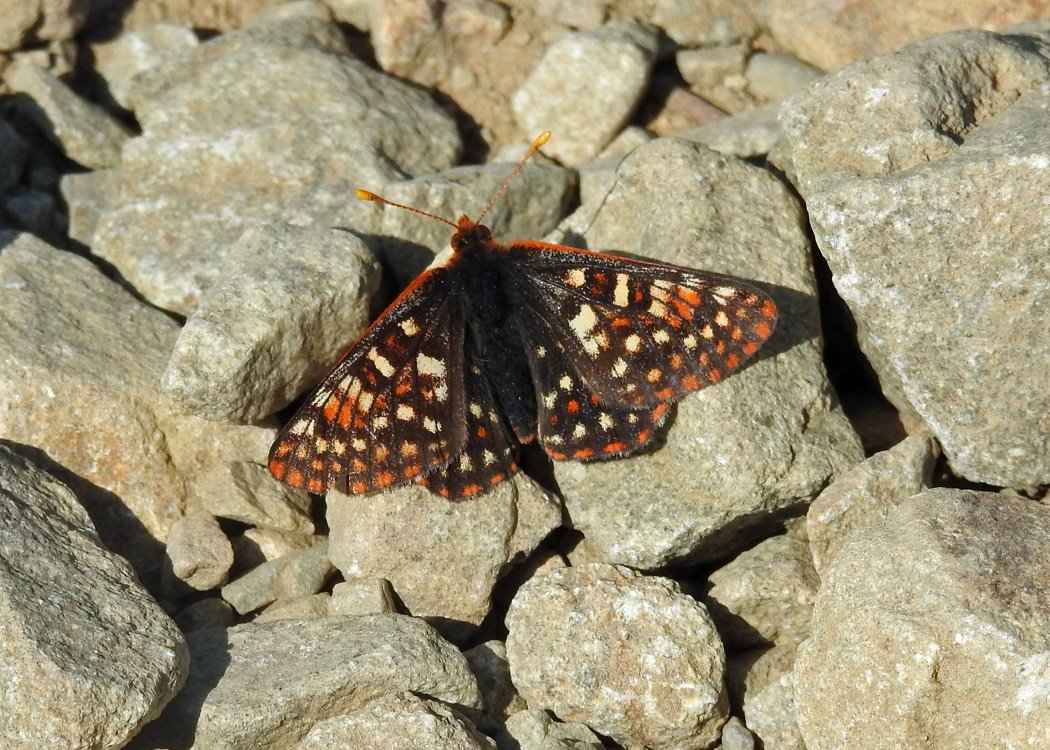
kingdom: Animalia
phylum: Arthropoda
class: Insecta
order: Lepidoptera
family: Nymphalidae
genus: Occidryas
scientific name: Occidryas anicia
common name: Anicia Checkerspot
